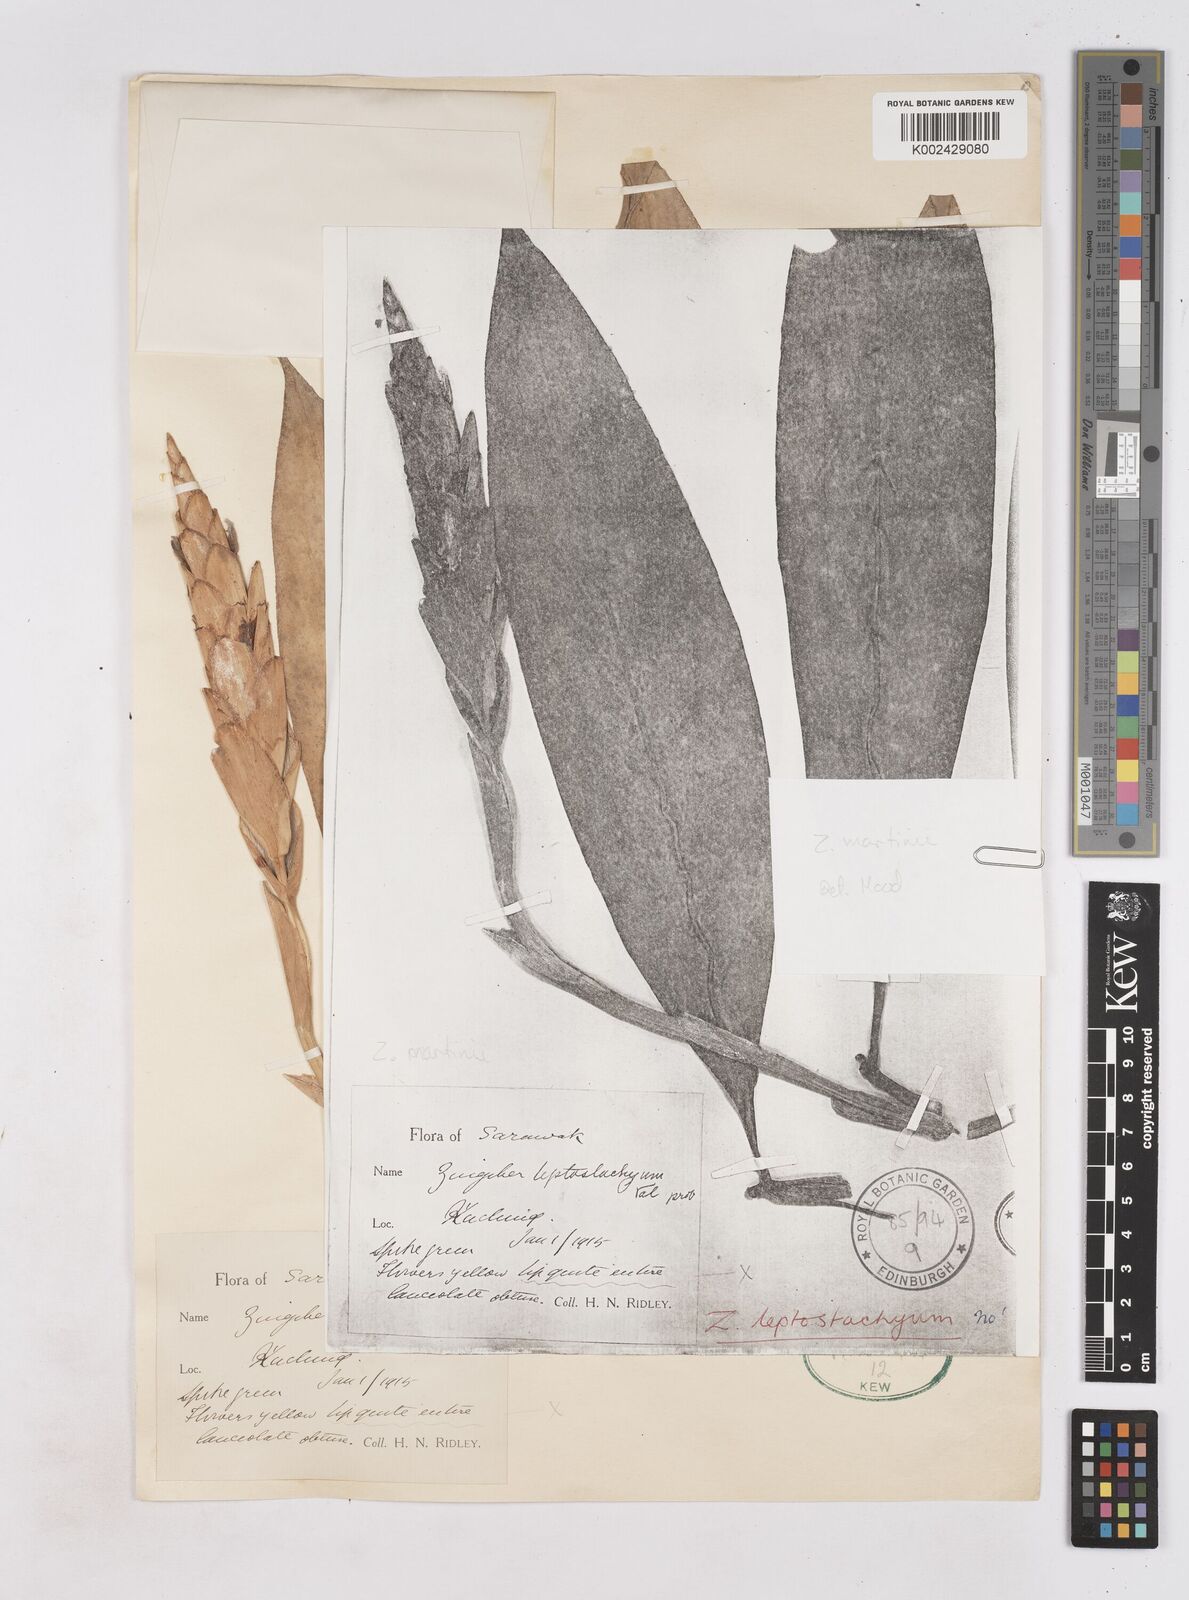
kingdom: Plantae
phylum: Tracheophyta
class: Liliopsida
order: Zingiberales
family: Zingiberaceae
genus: Zingiber
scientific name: Zingiber leptostachyum
